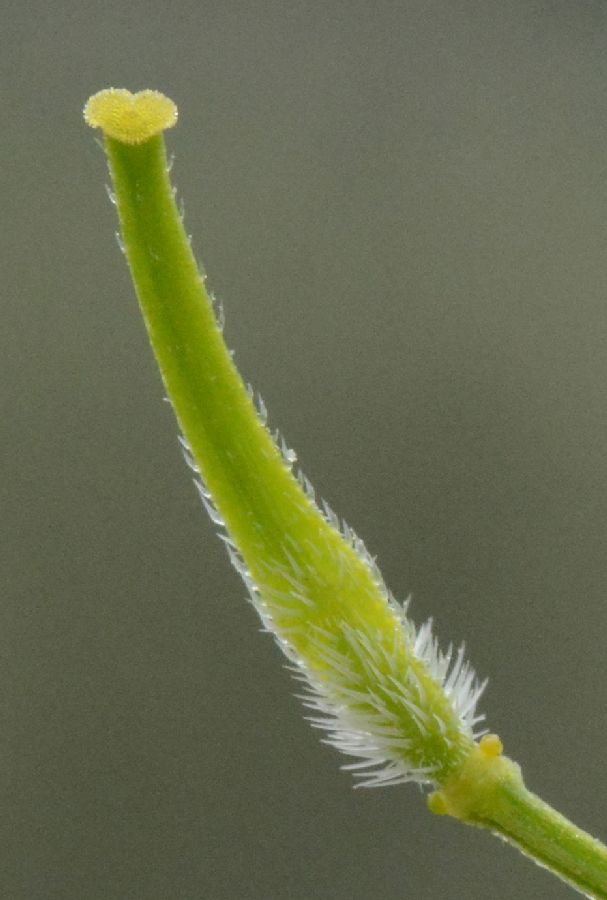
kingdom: Plantae
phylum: Tracheophyta
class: Magnoliopsida
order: Brassicales
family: Brassicaceae
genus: Sinapis
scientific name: Sinapis alba
